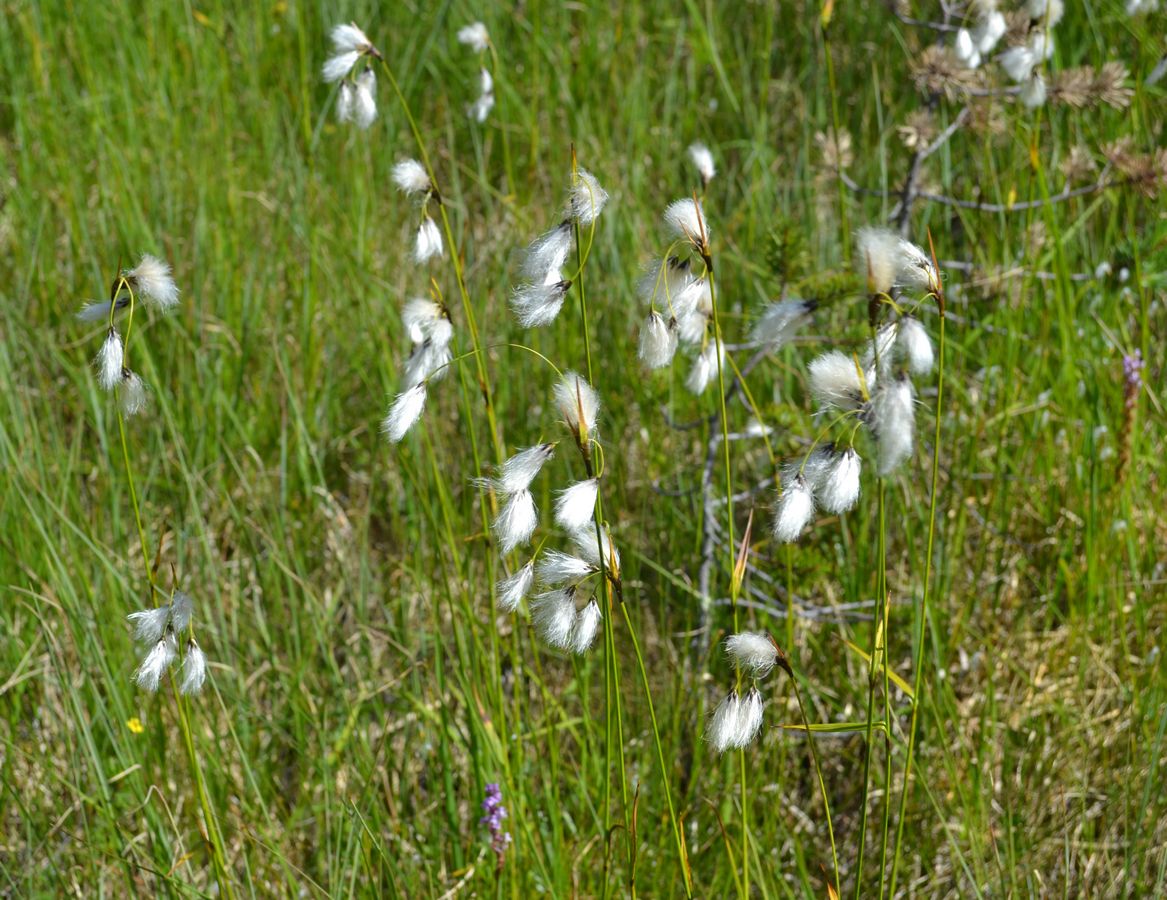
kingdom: Plantae
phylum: Tracheophyta
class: Liliopsida
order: Poales
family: Cyperaceae
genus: Eriophorum
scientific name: Eriophorum latifolium
